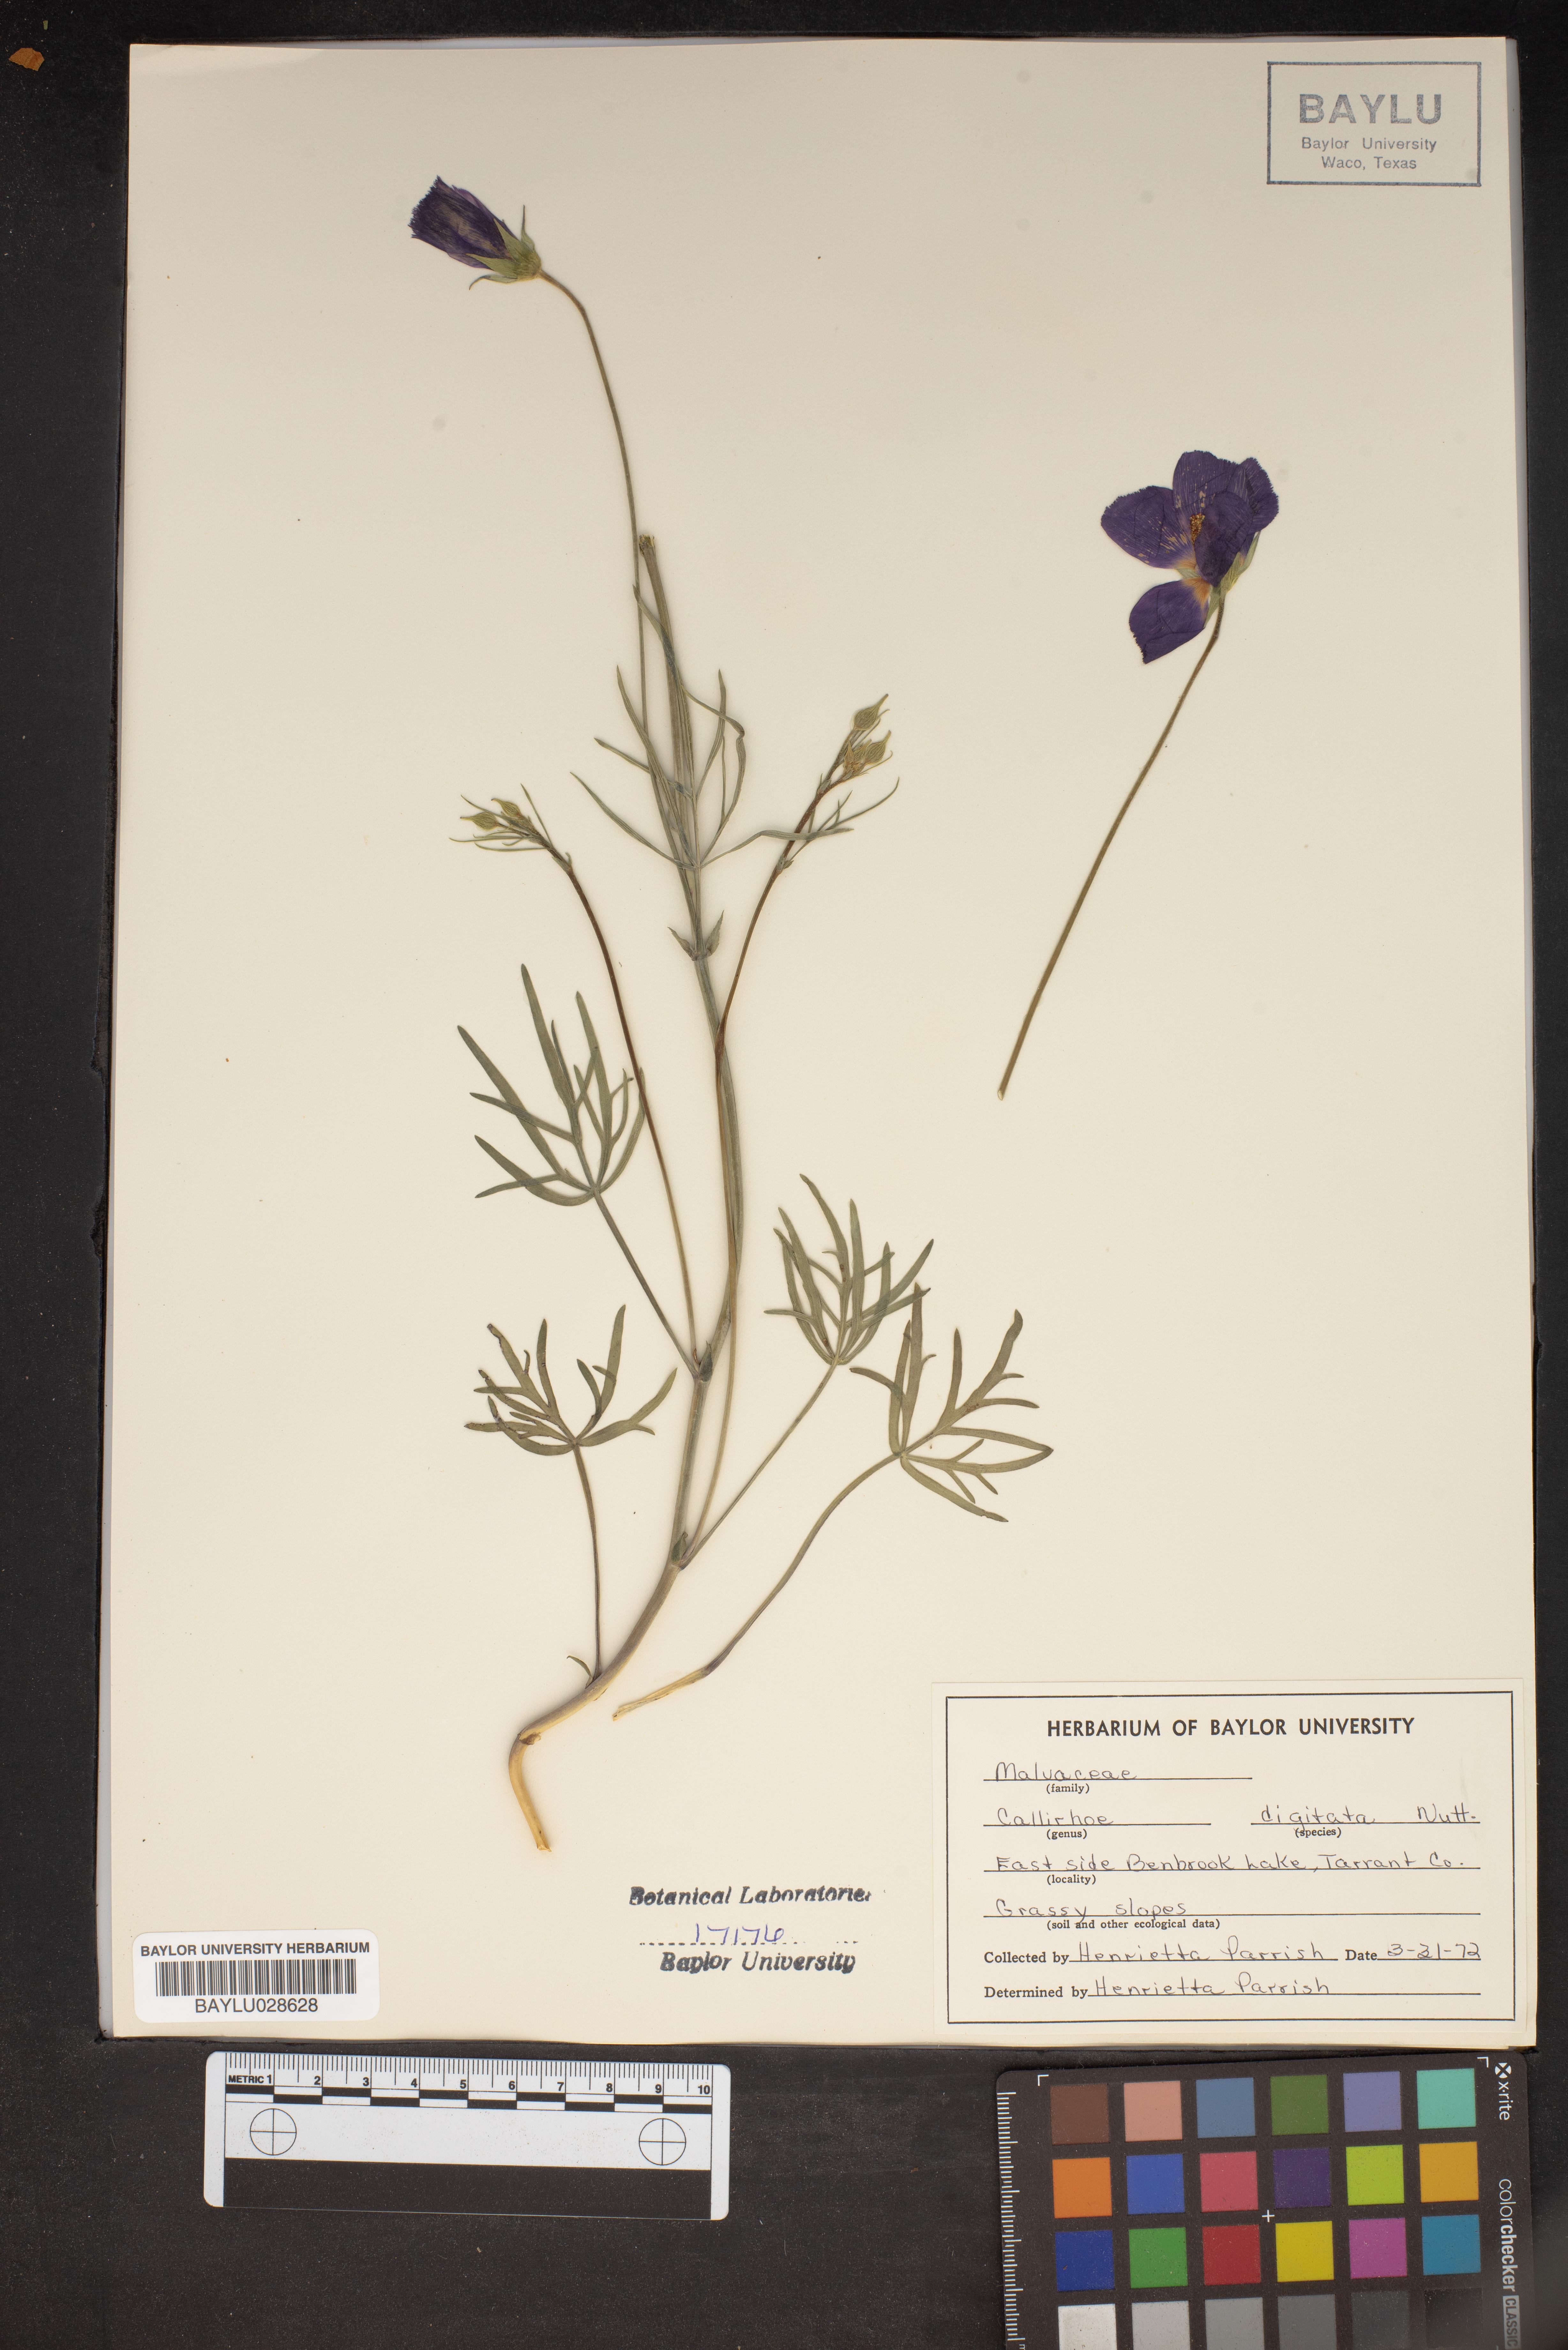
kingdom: Plantae
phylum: Tracheophyta
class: Magnoliopsida
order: Malvales
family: Malvaceae
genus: Callirhoe
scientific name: Callirhoe digitata
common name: Finger poppy-mallow
